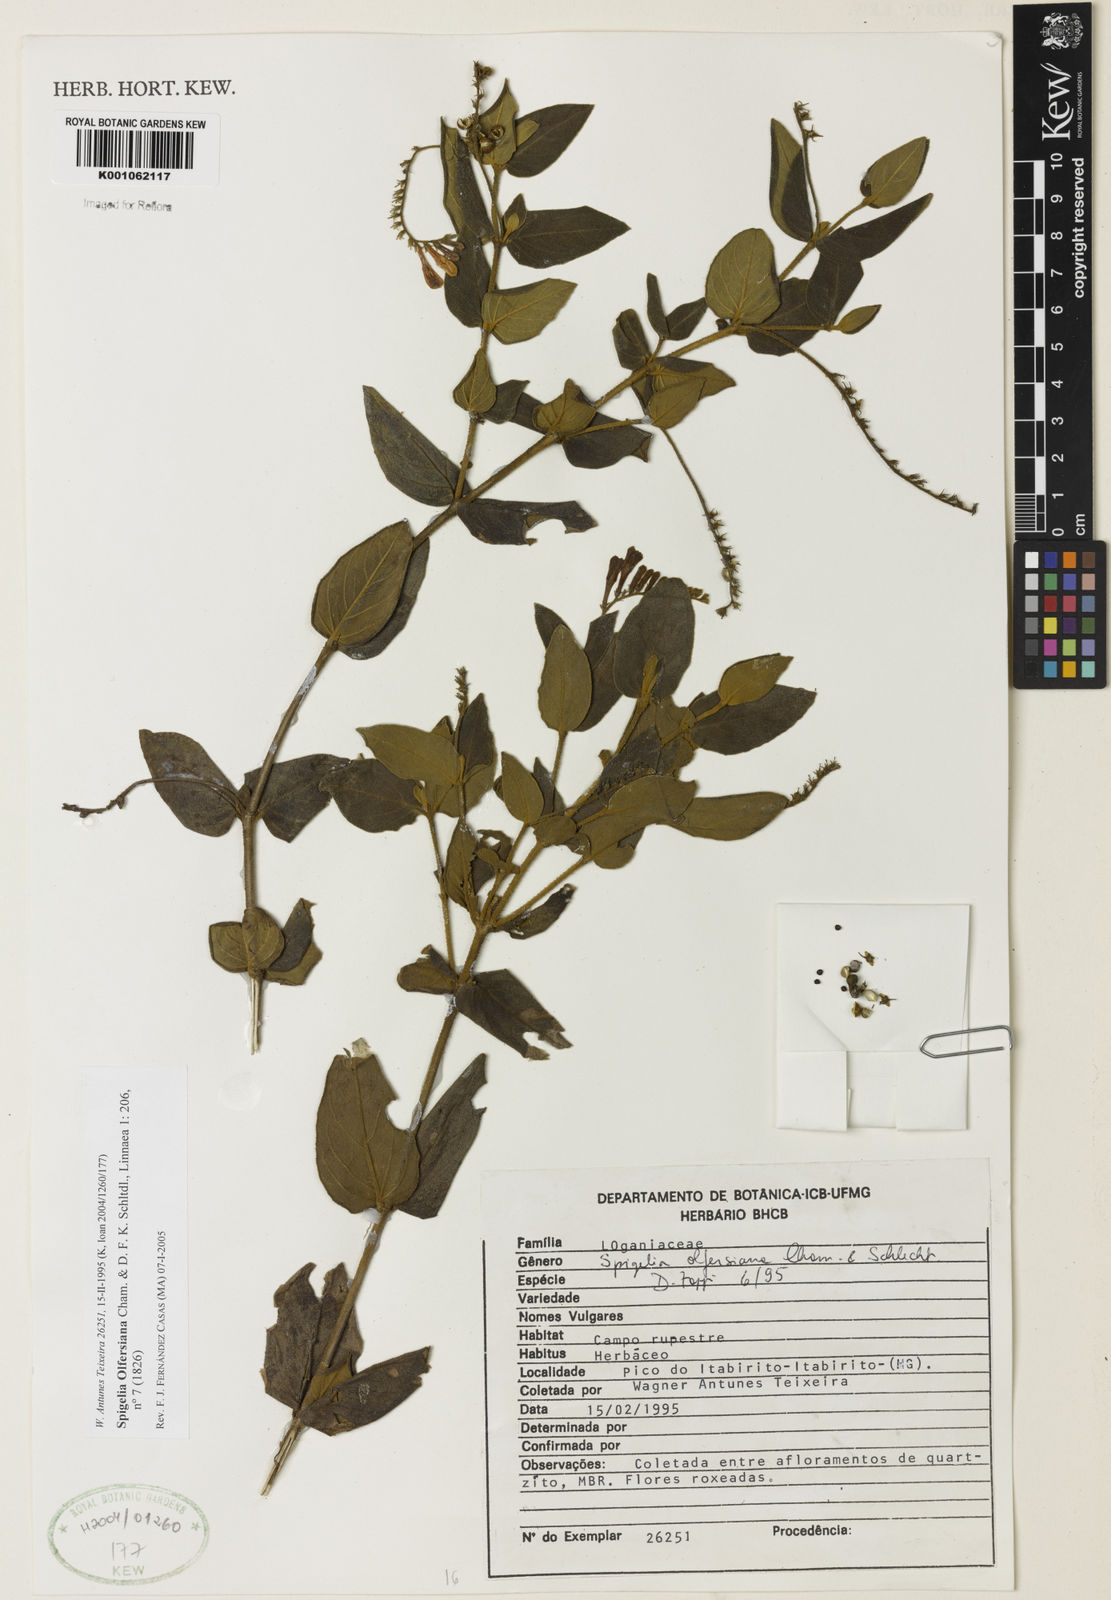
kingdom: Plantae
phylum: Tracheophyta
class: Magnoliopsida
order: Gentianales
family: Loganiaceae
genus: Spigelia
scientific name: Spigelia olfersiana
